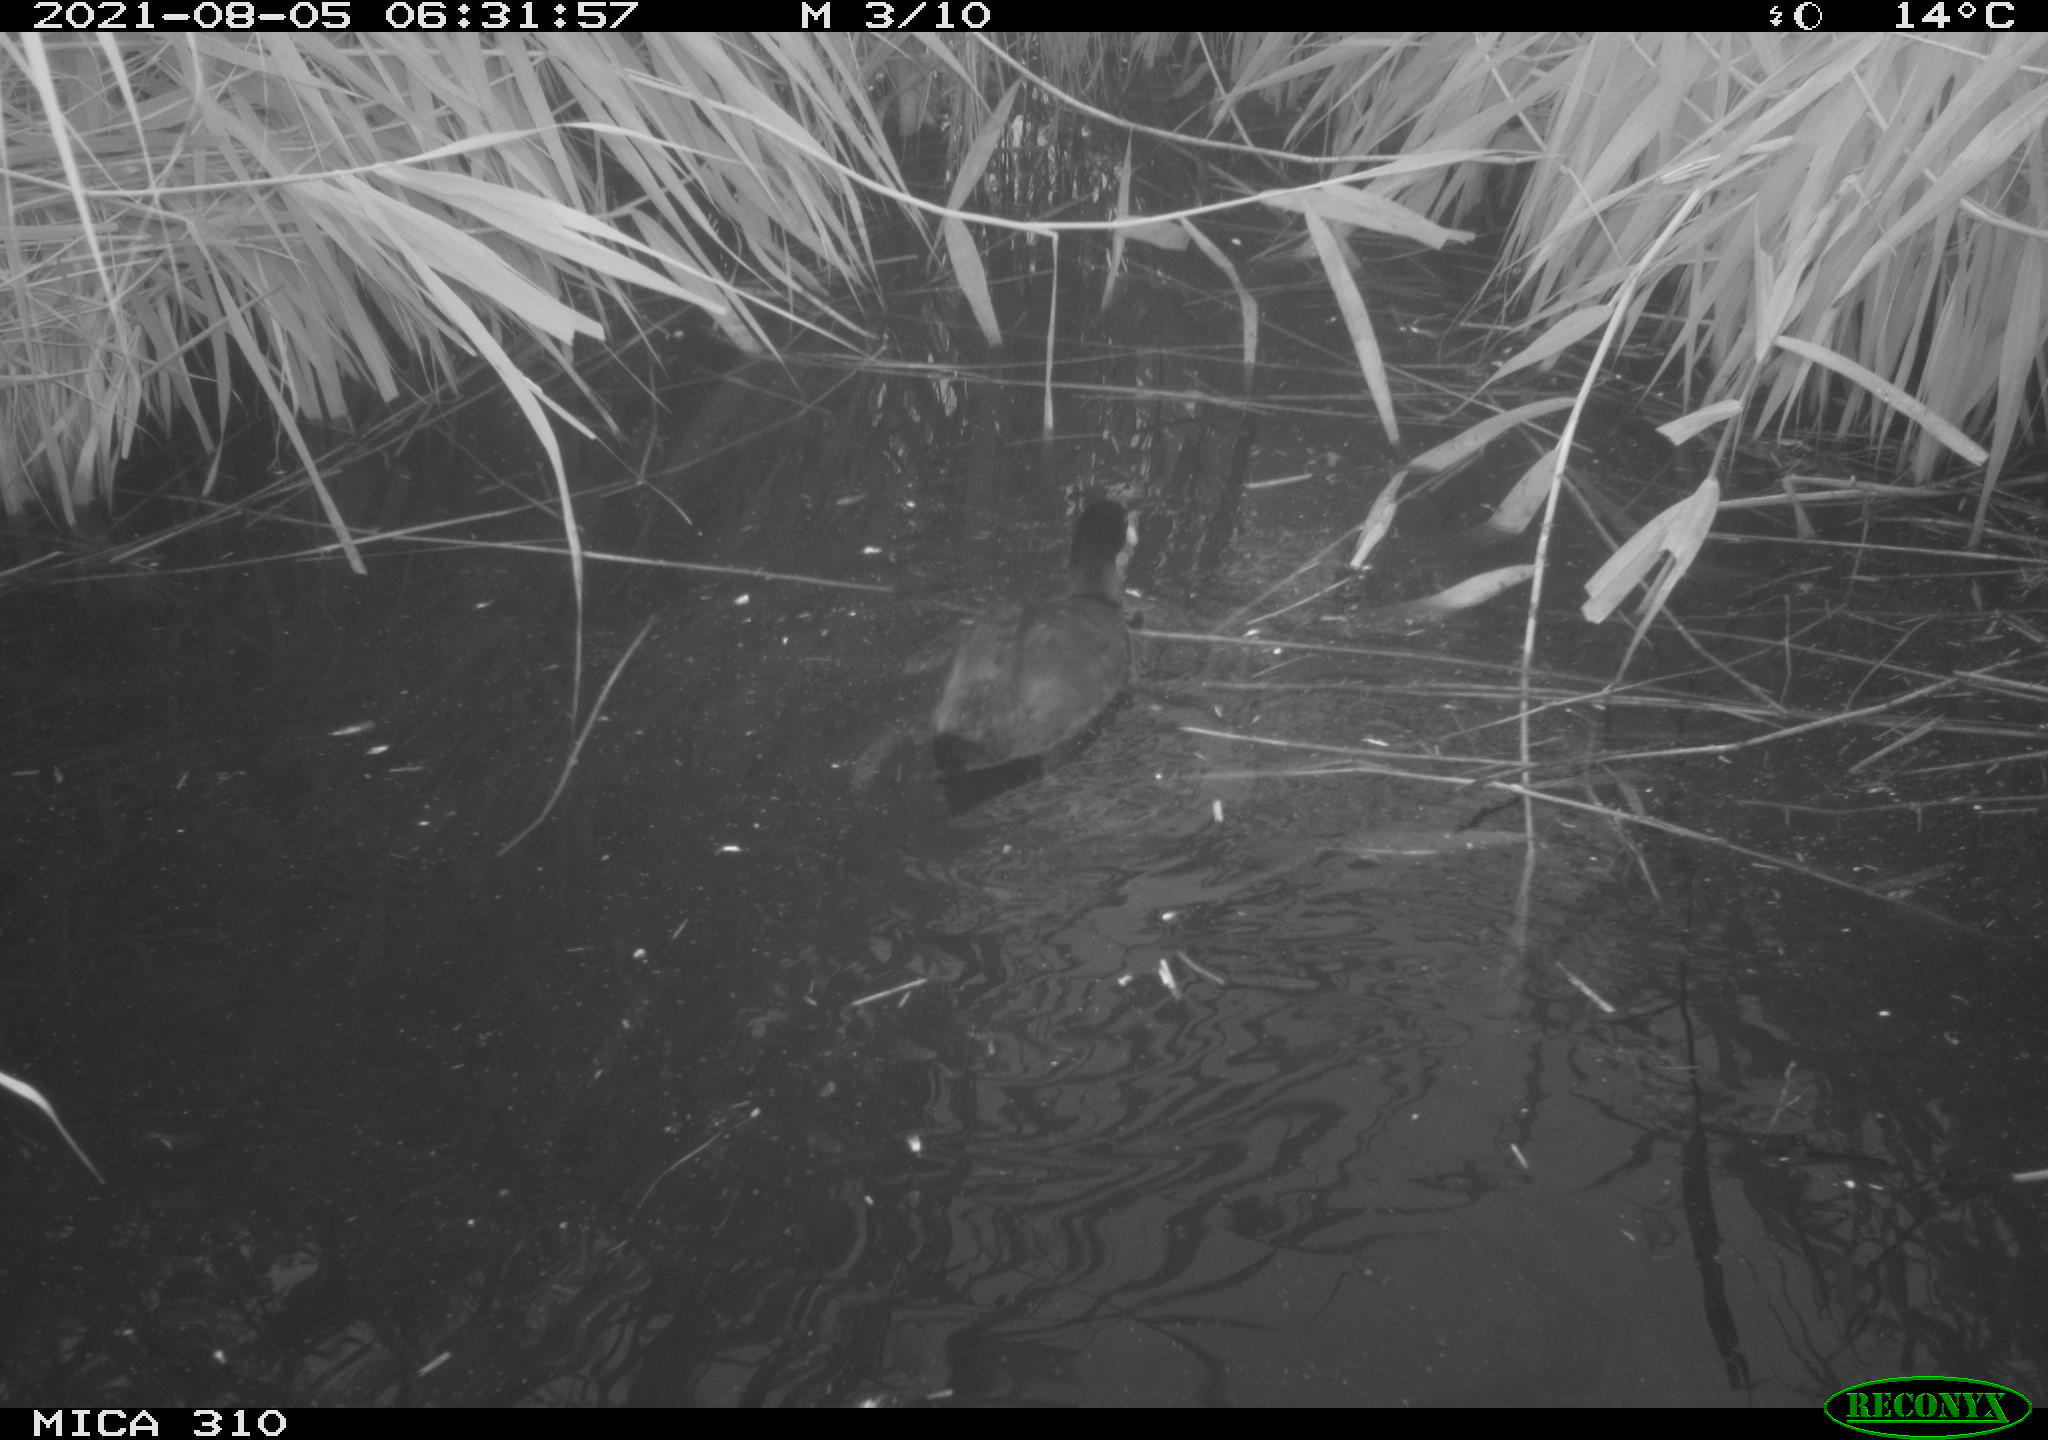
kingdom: Animalia
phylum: Chordata
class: Aves
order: Gruiformes
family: Rallidae
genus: Fulica
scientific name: Fulica atra
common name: Eurasian coot
